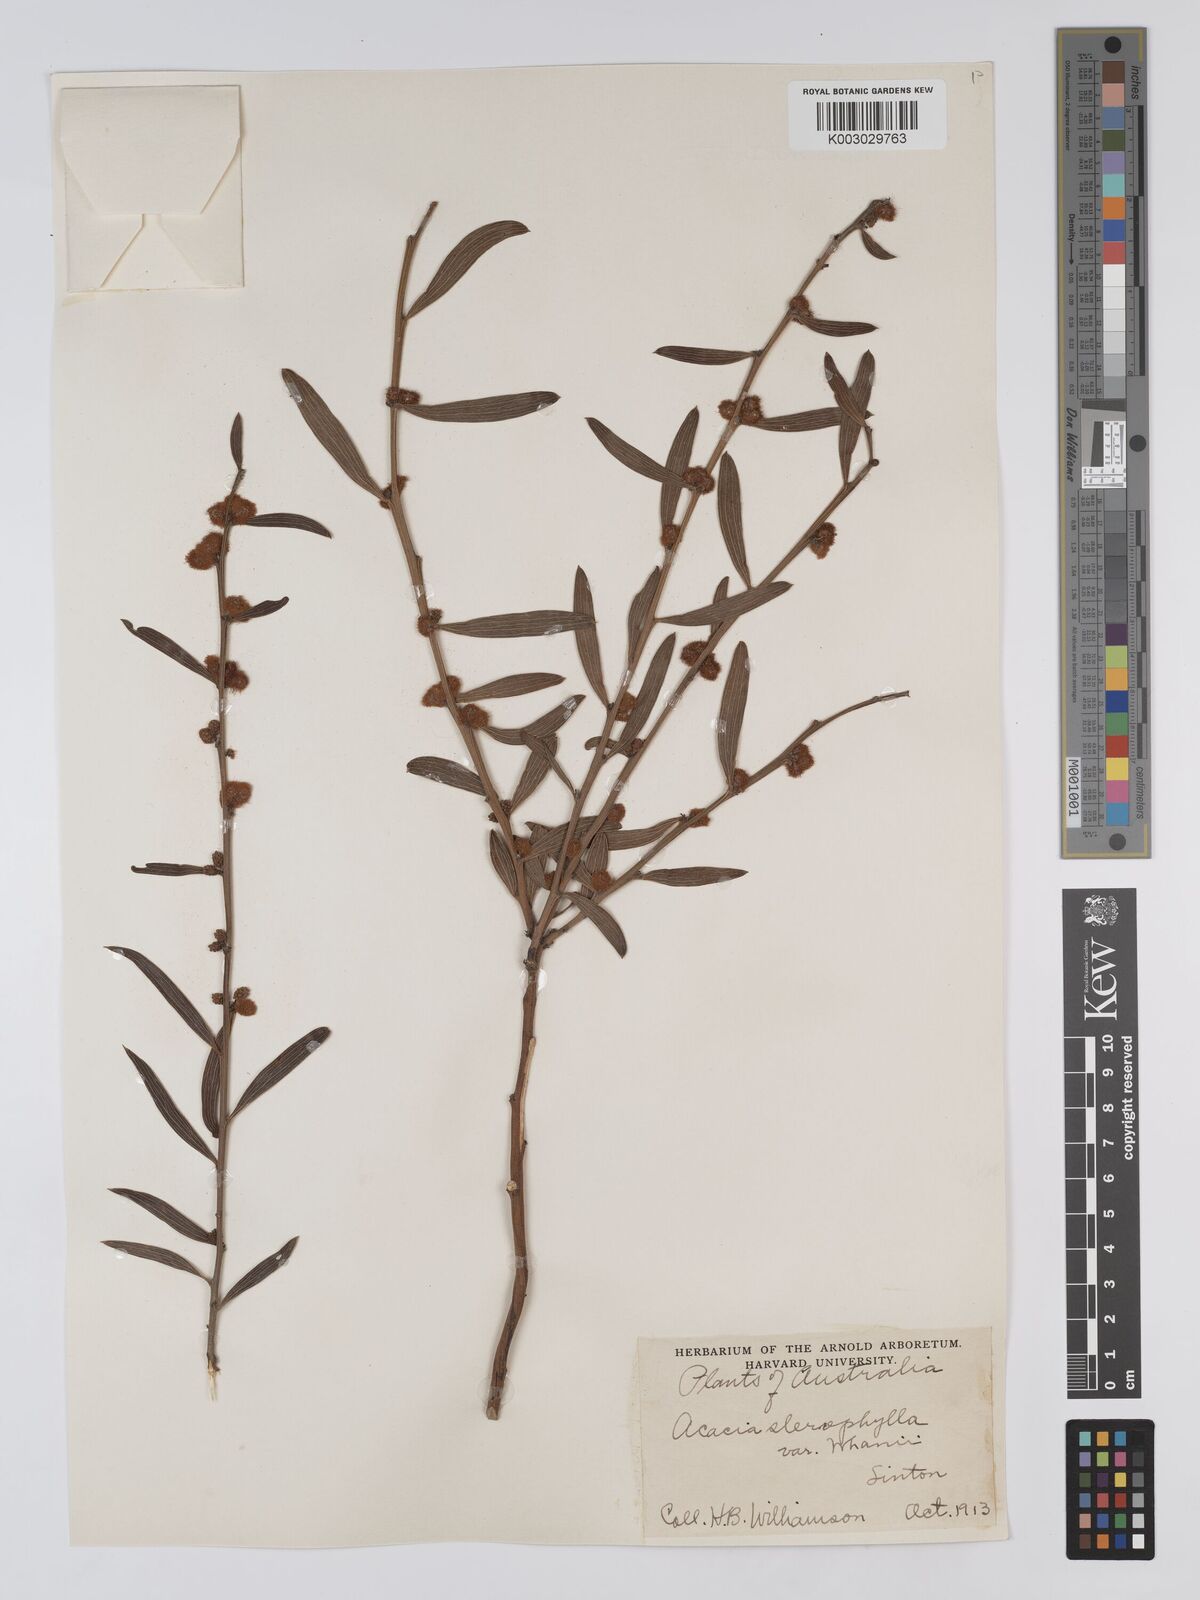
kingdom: Plantae
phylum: Tracheophyta
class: Magnoliopsida
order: Fabales
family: Fabaceae
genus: Acacia
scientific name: Acacia stereophylla
